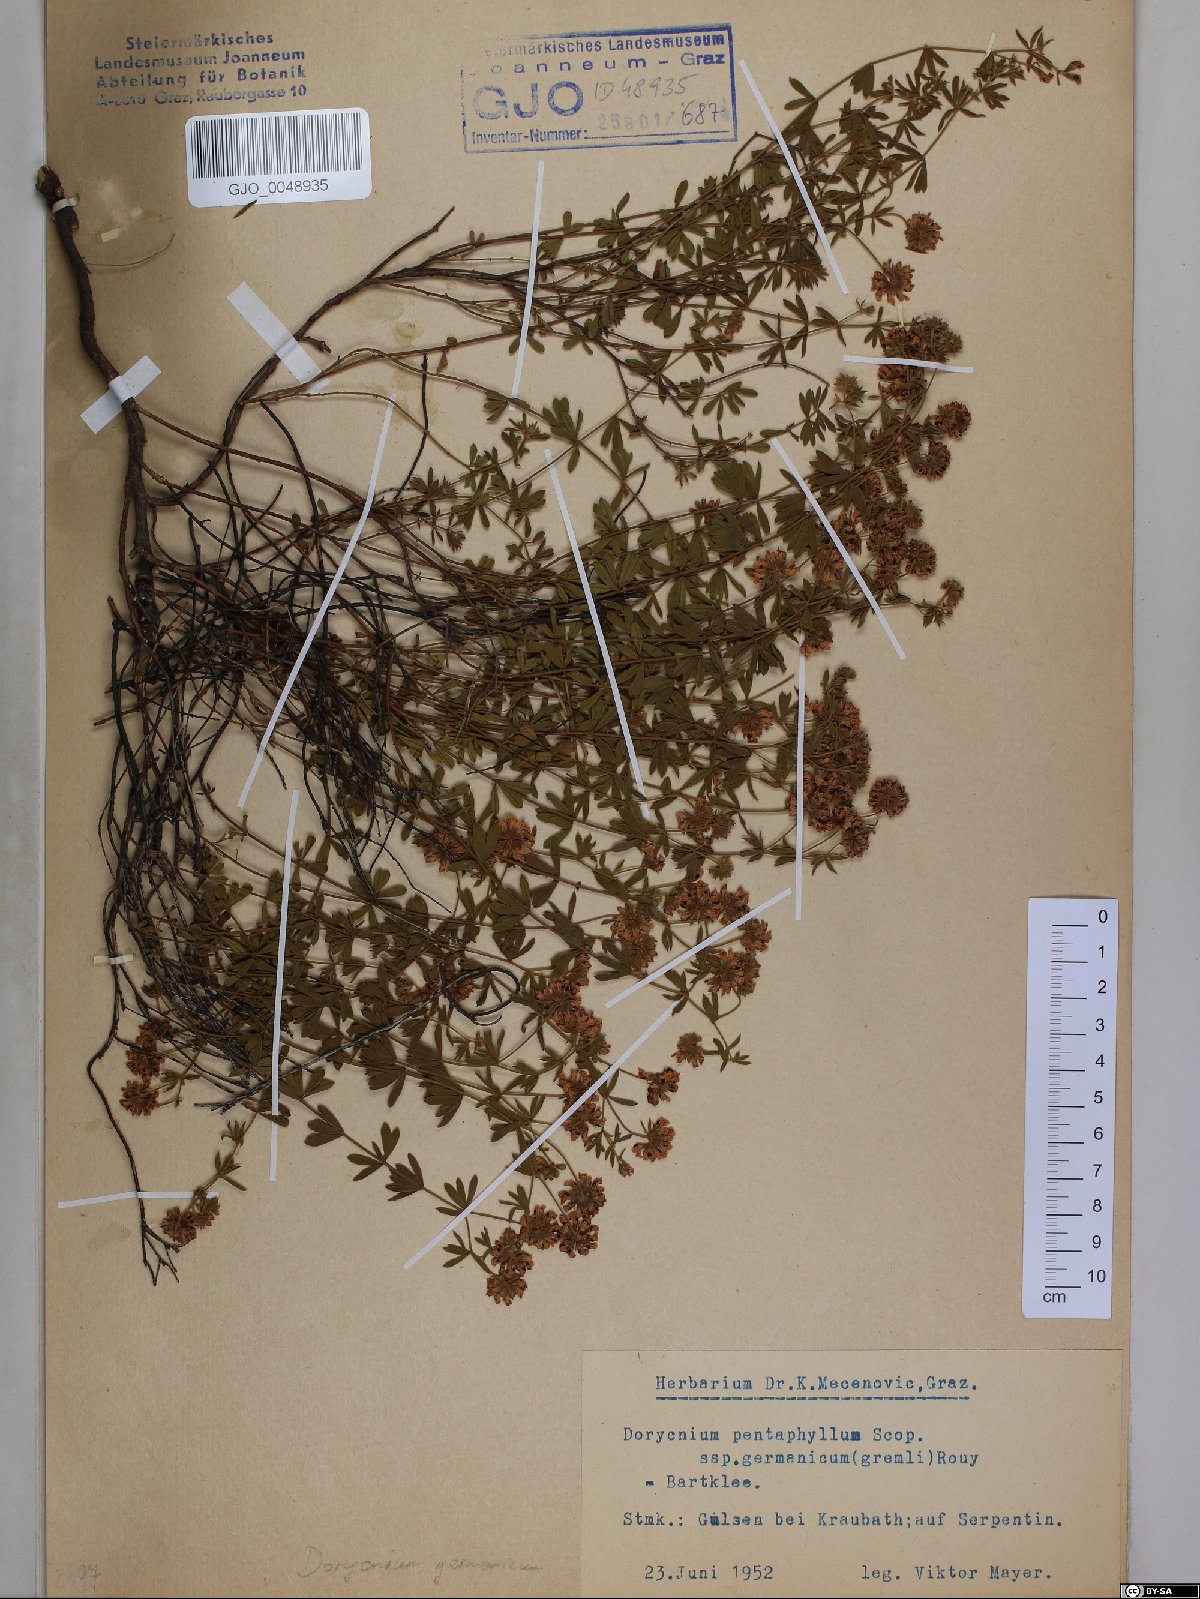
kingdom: Plantae
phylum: Tracheophyta
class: Magnoliopsida
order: Fabales
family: Fabaceae
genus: Lotus
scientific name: Lotus germanicus
